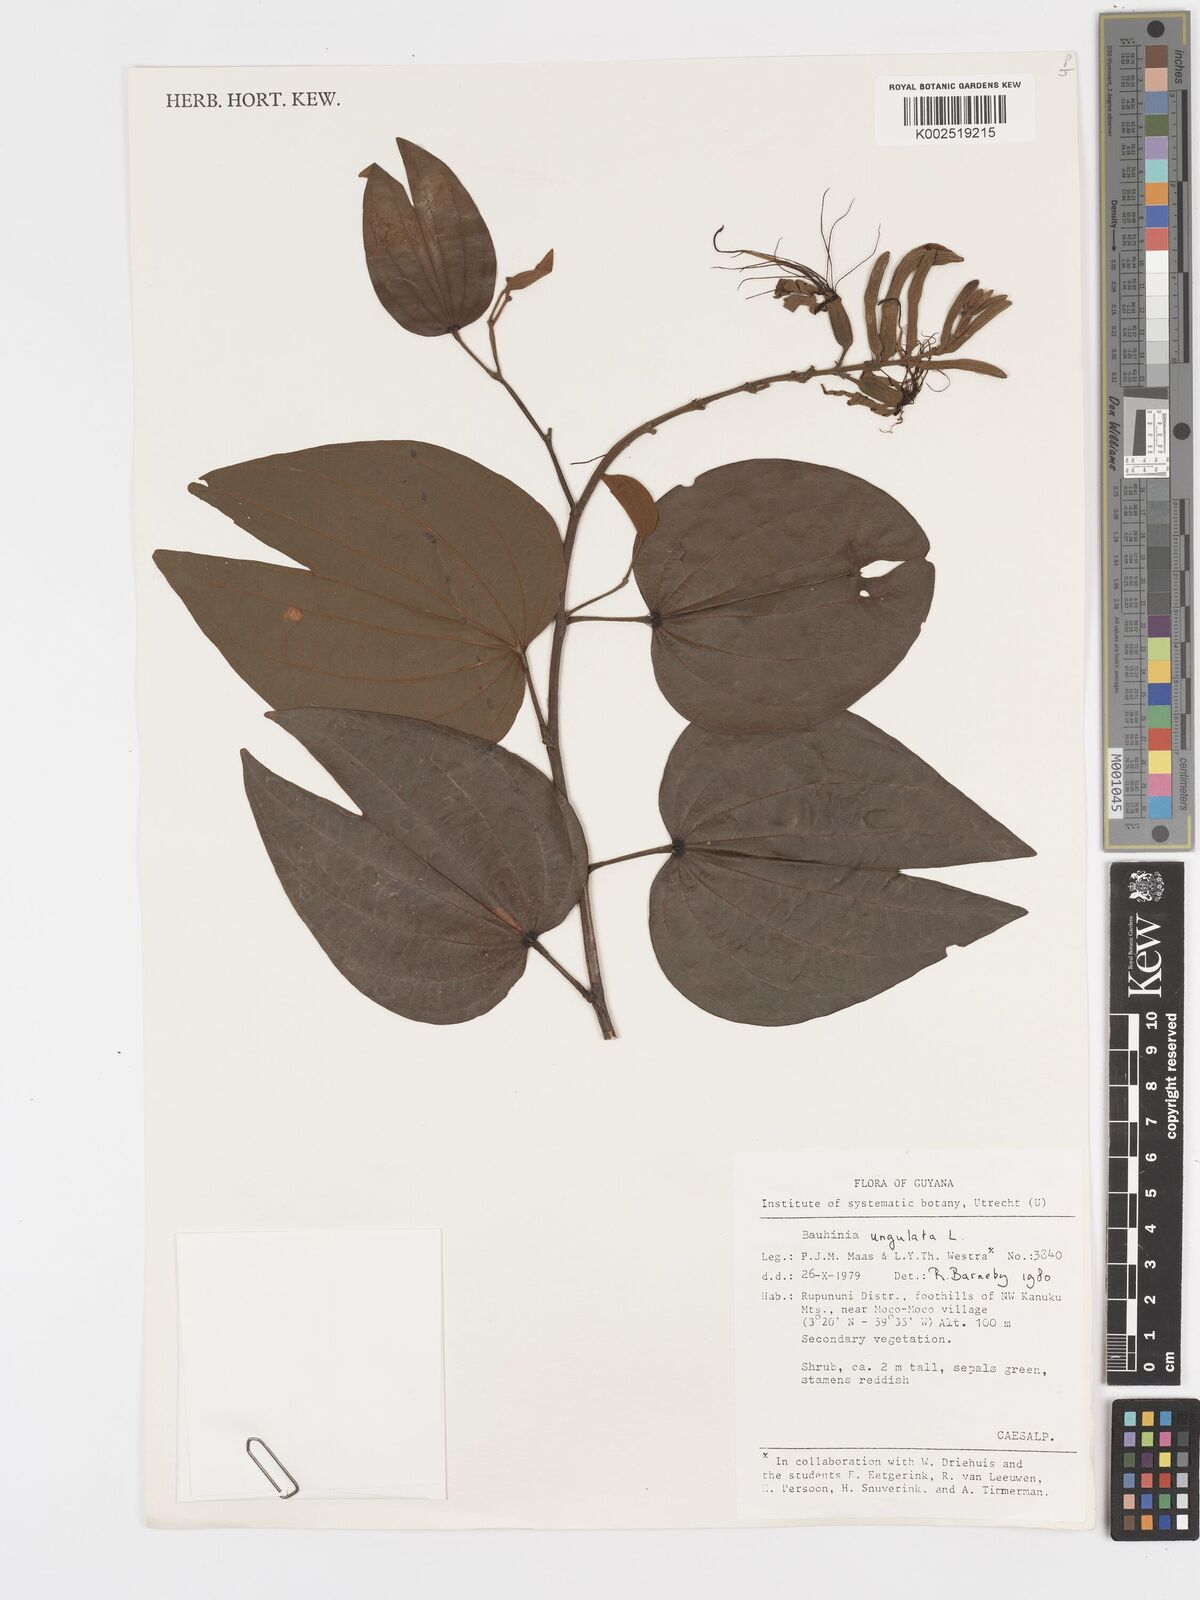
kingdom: Plantae
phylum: Tracheophyta
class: Magnoliopsida
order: Fabales
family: Fabaceae
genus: Bauhinia
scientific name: Bauhinia ungulata
